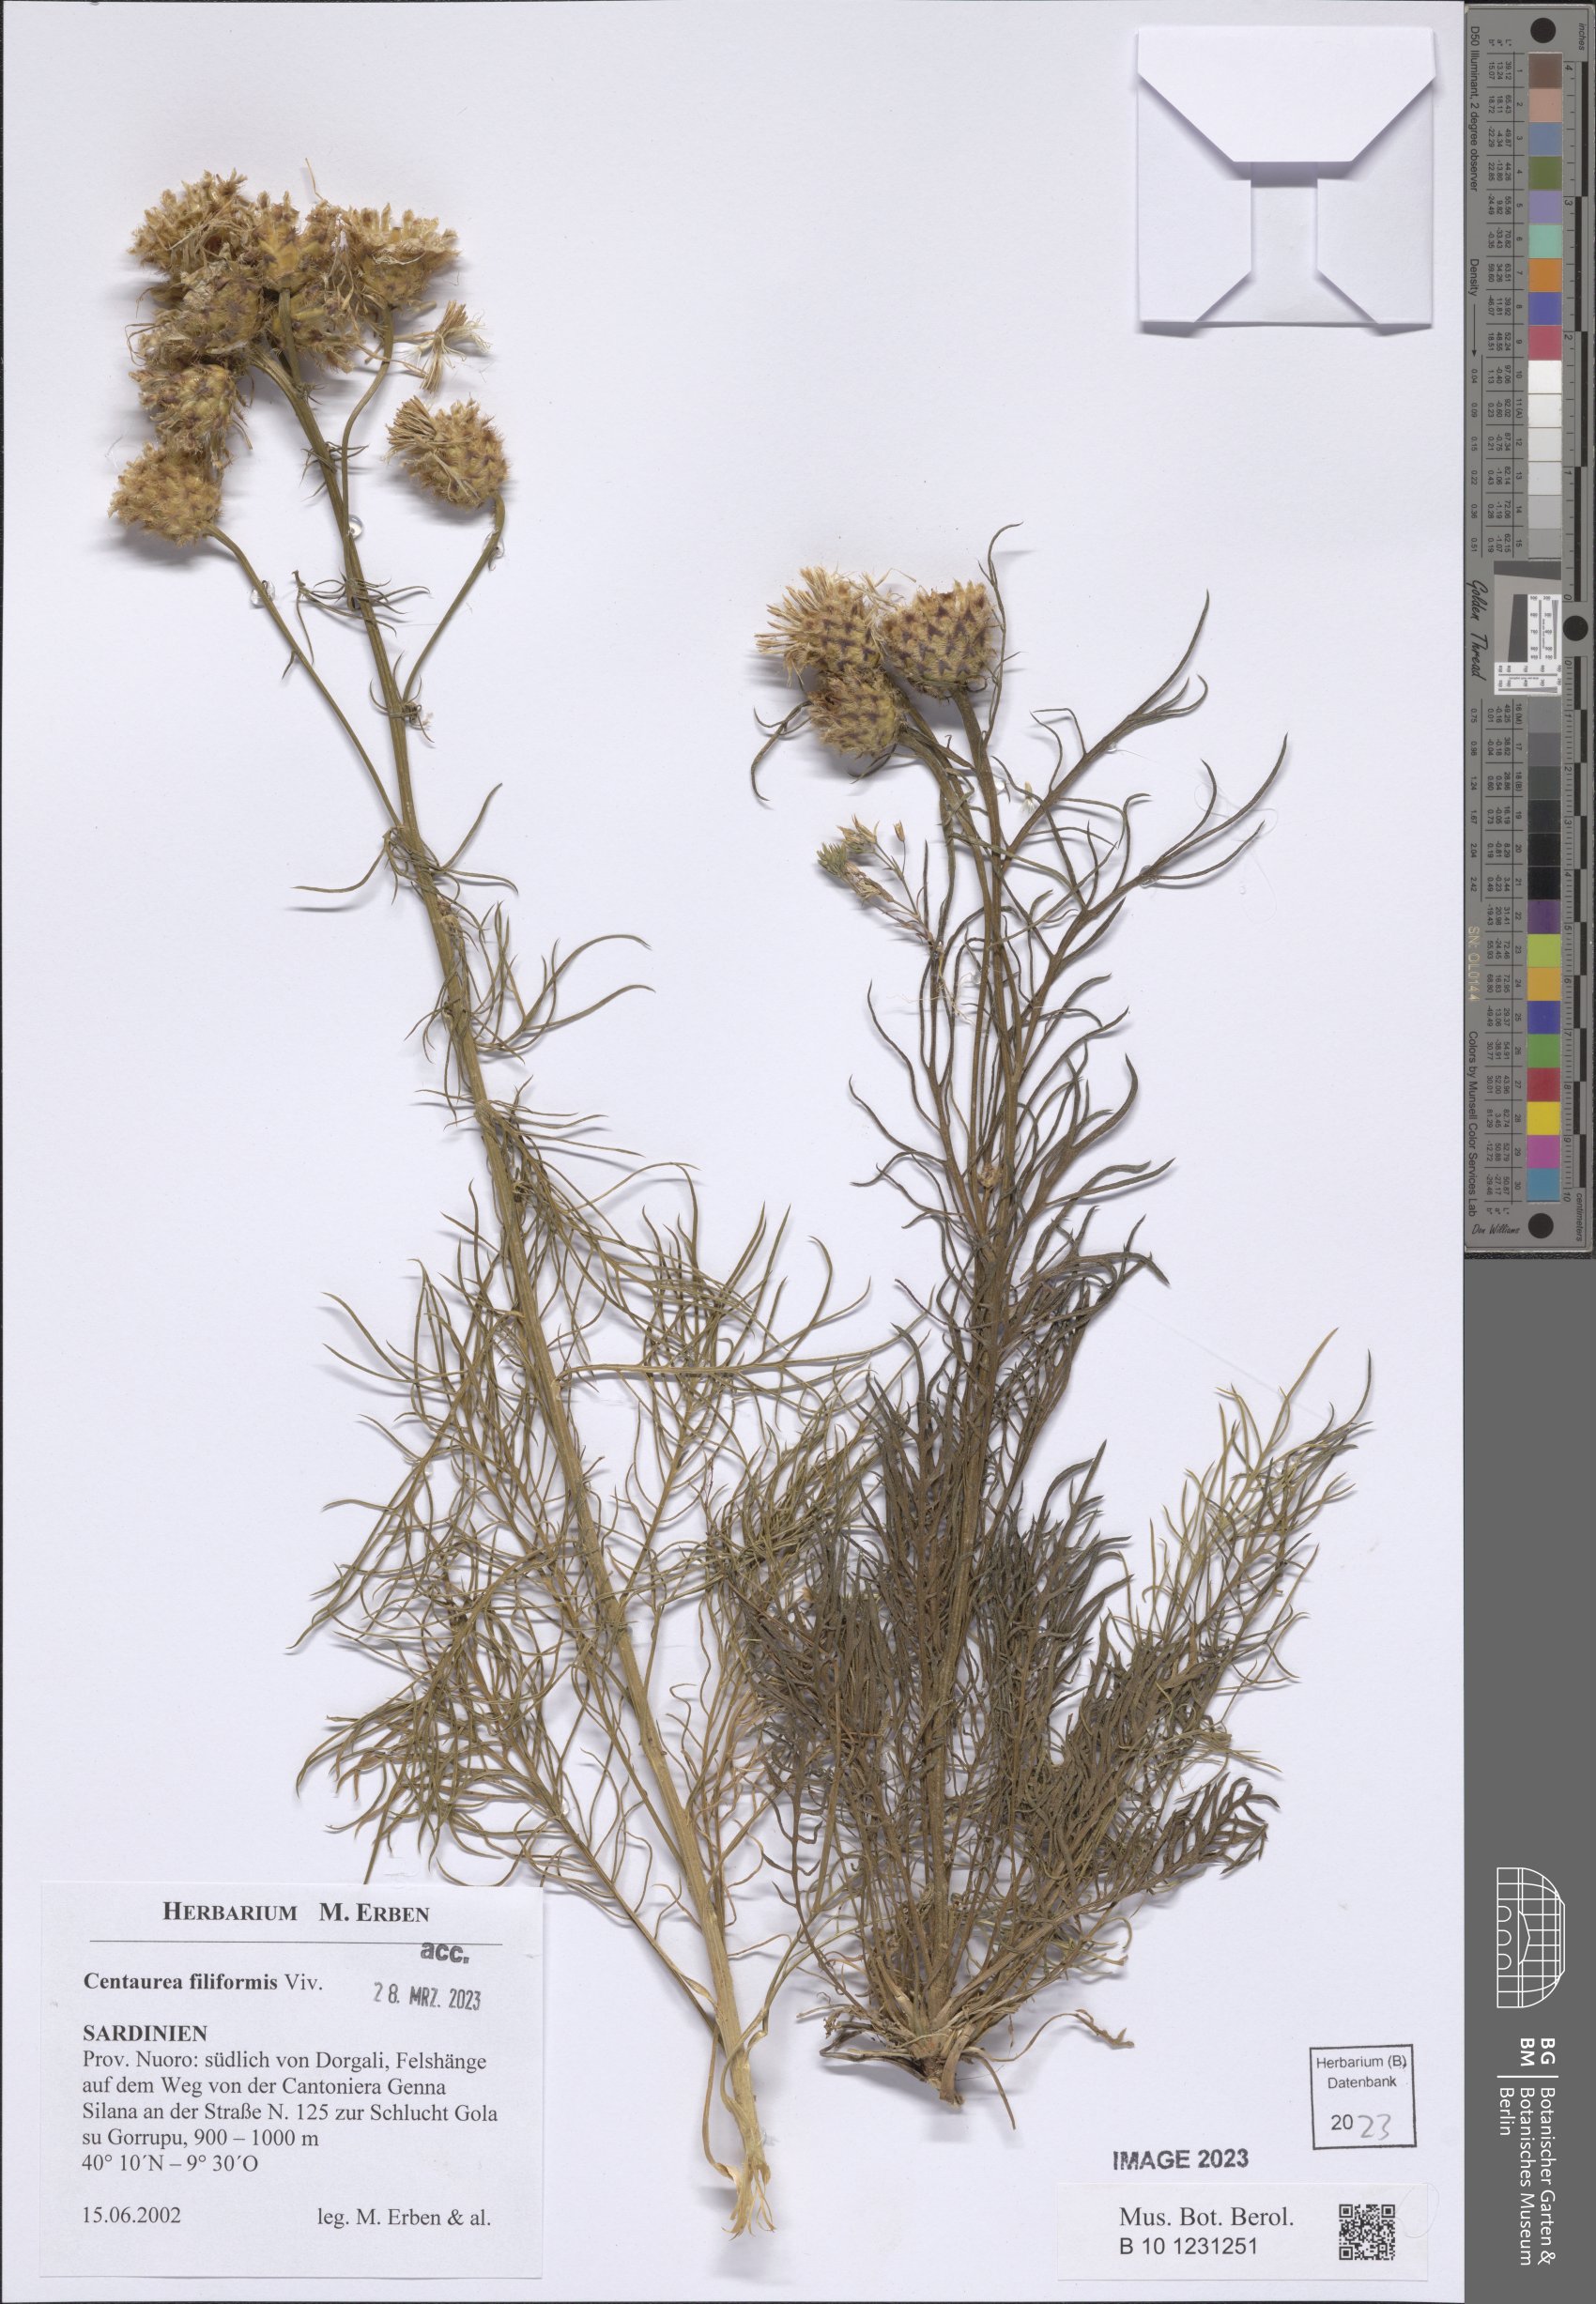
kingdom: Plantae
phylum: Tracheophyta
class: Magnoliopsida
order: Asterales
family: Asteraceae
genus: Centaurea
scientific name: Centaurea filiformis
